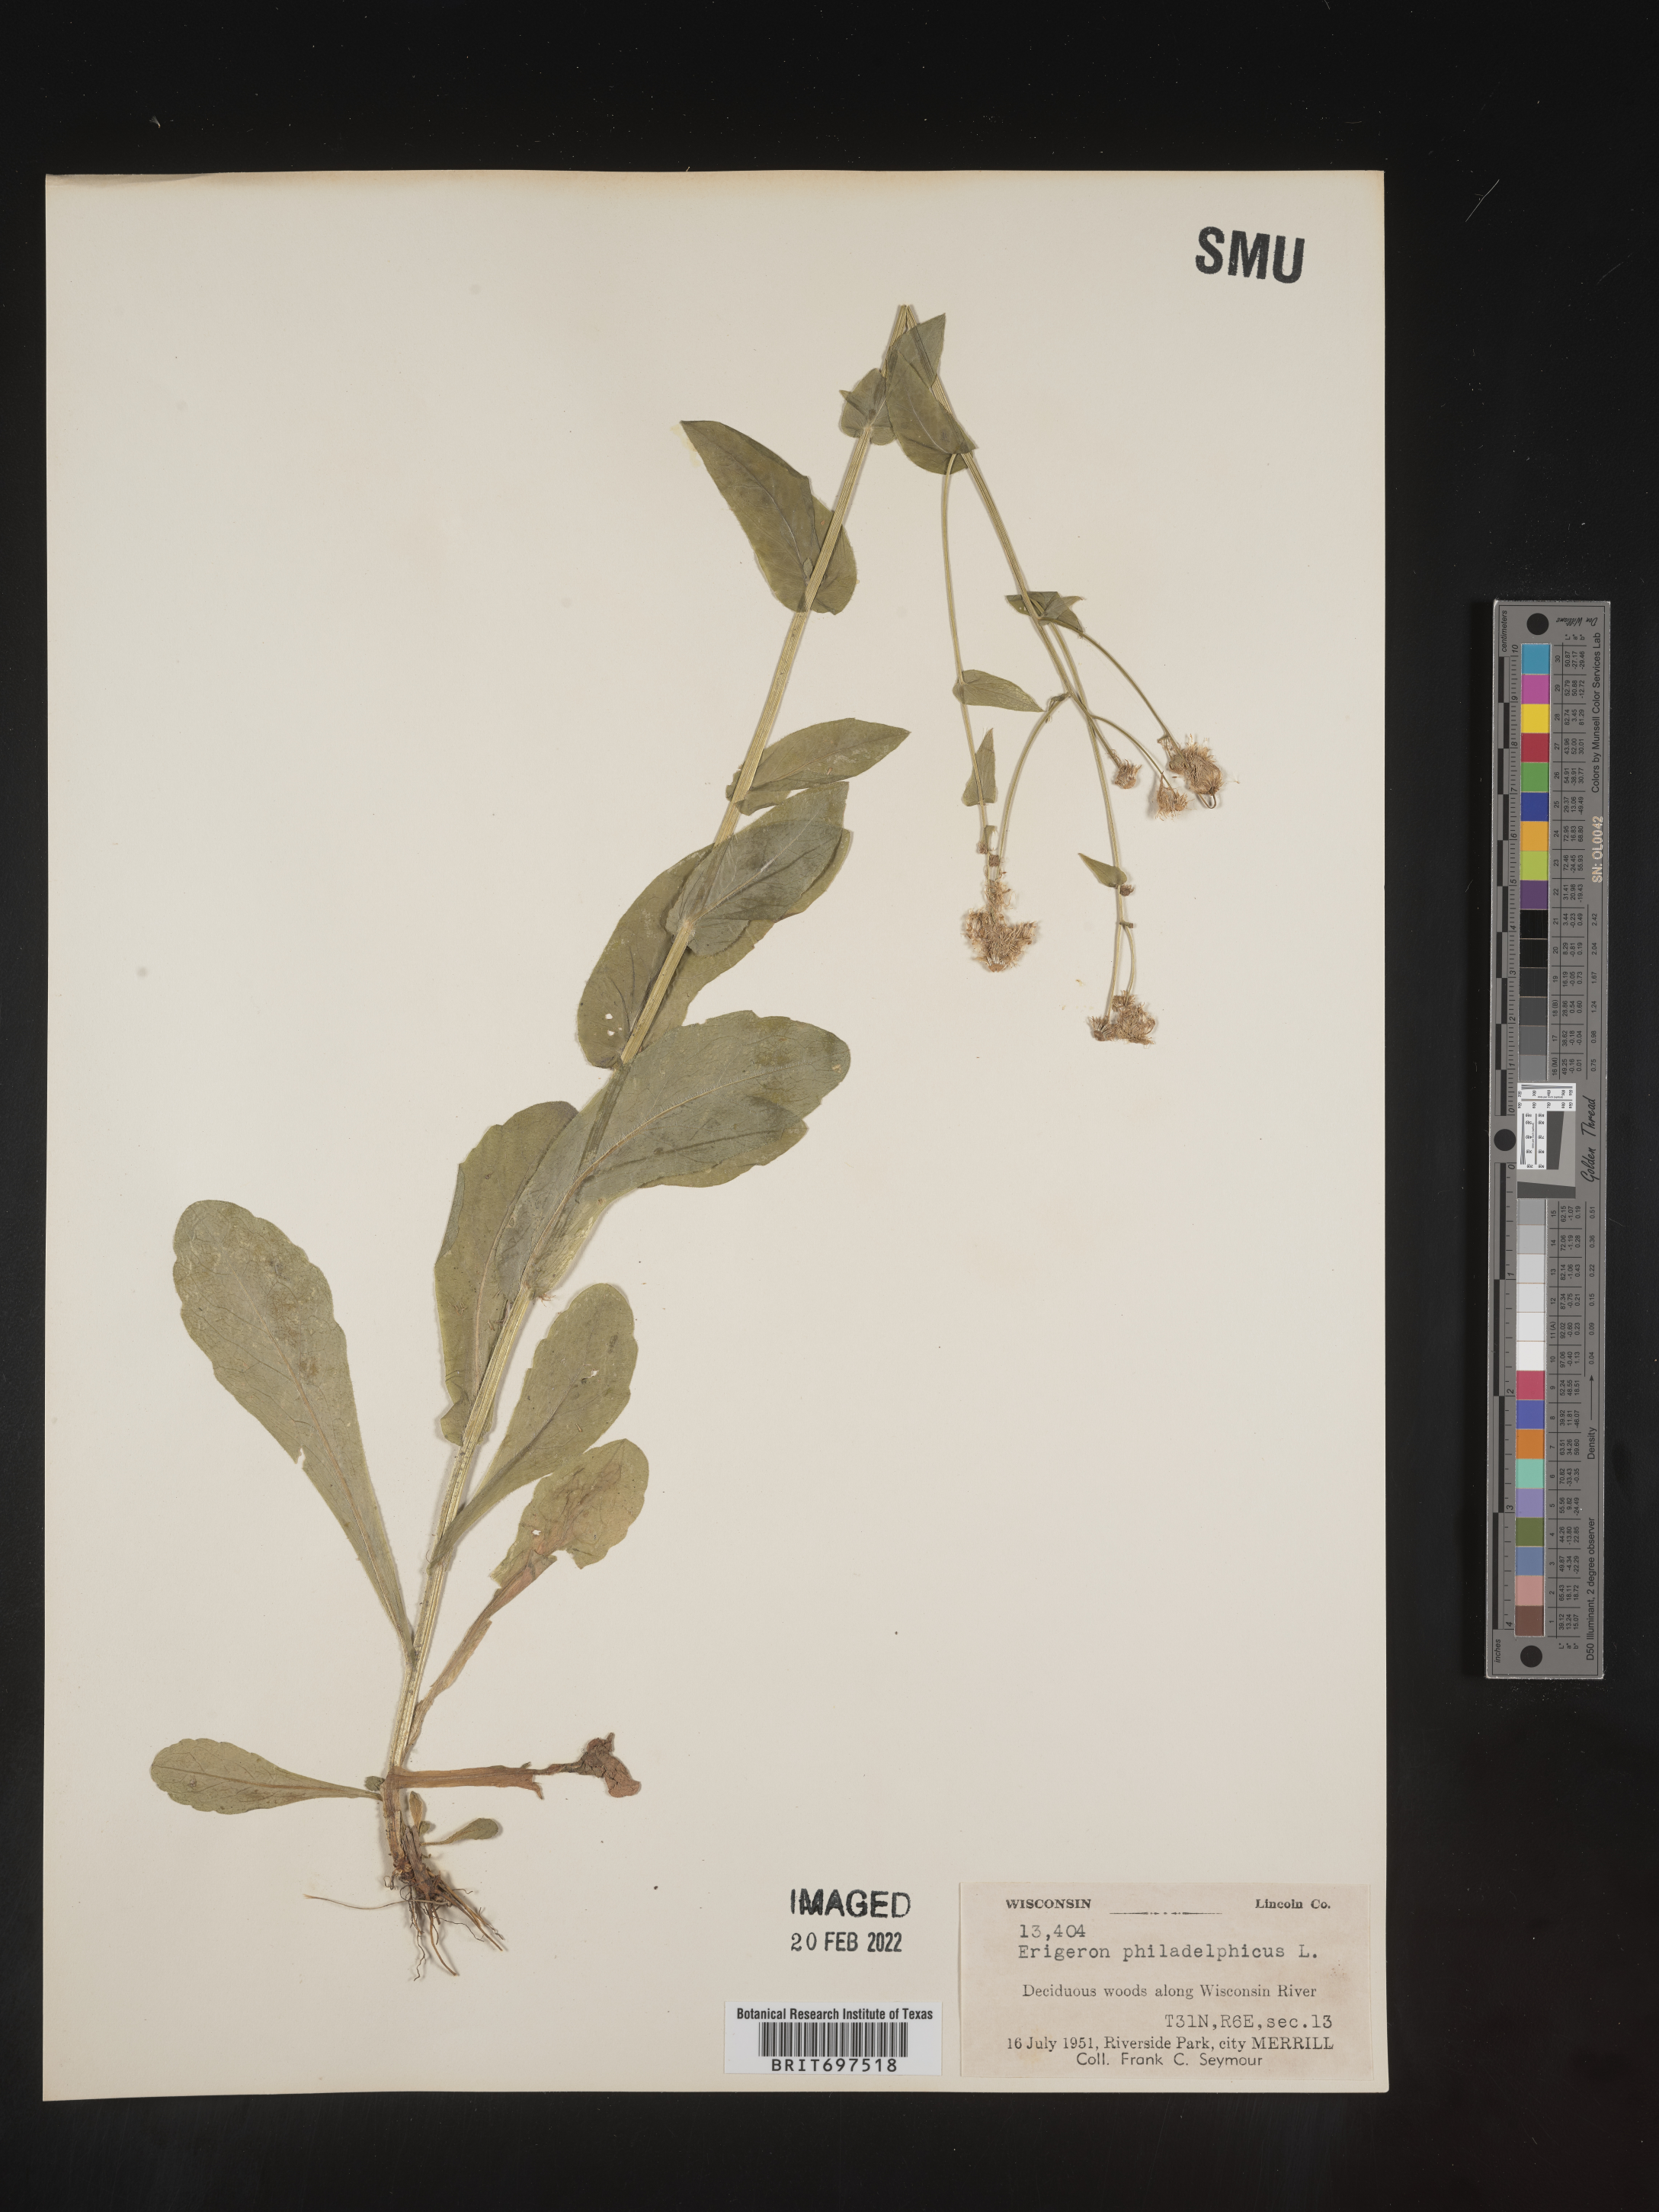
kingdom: Plantae
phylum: Tracheophyta
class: Magnoliopsida
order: Asterales
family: Asteraceae
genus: Erigeron
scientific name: Erigeron philadelphicus
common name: Robin's-plantain
